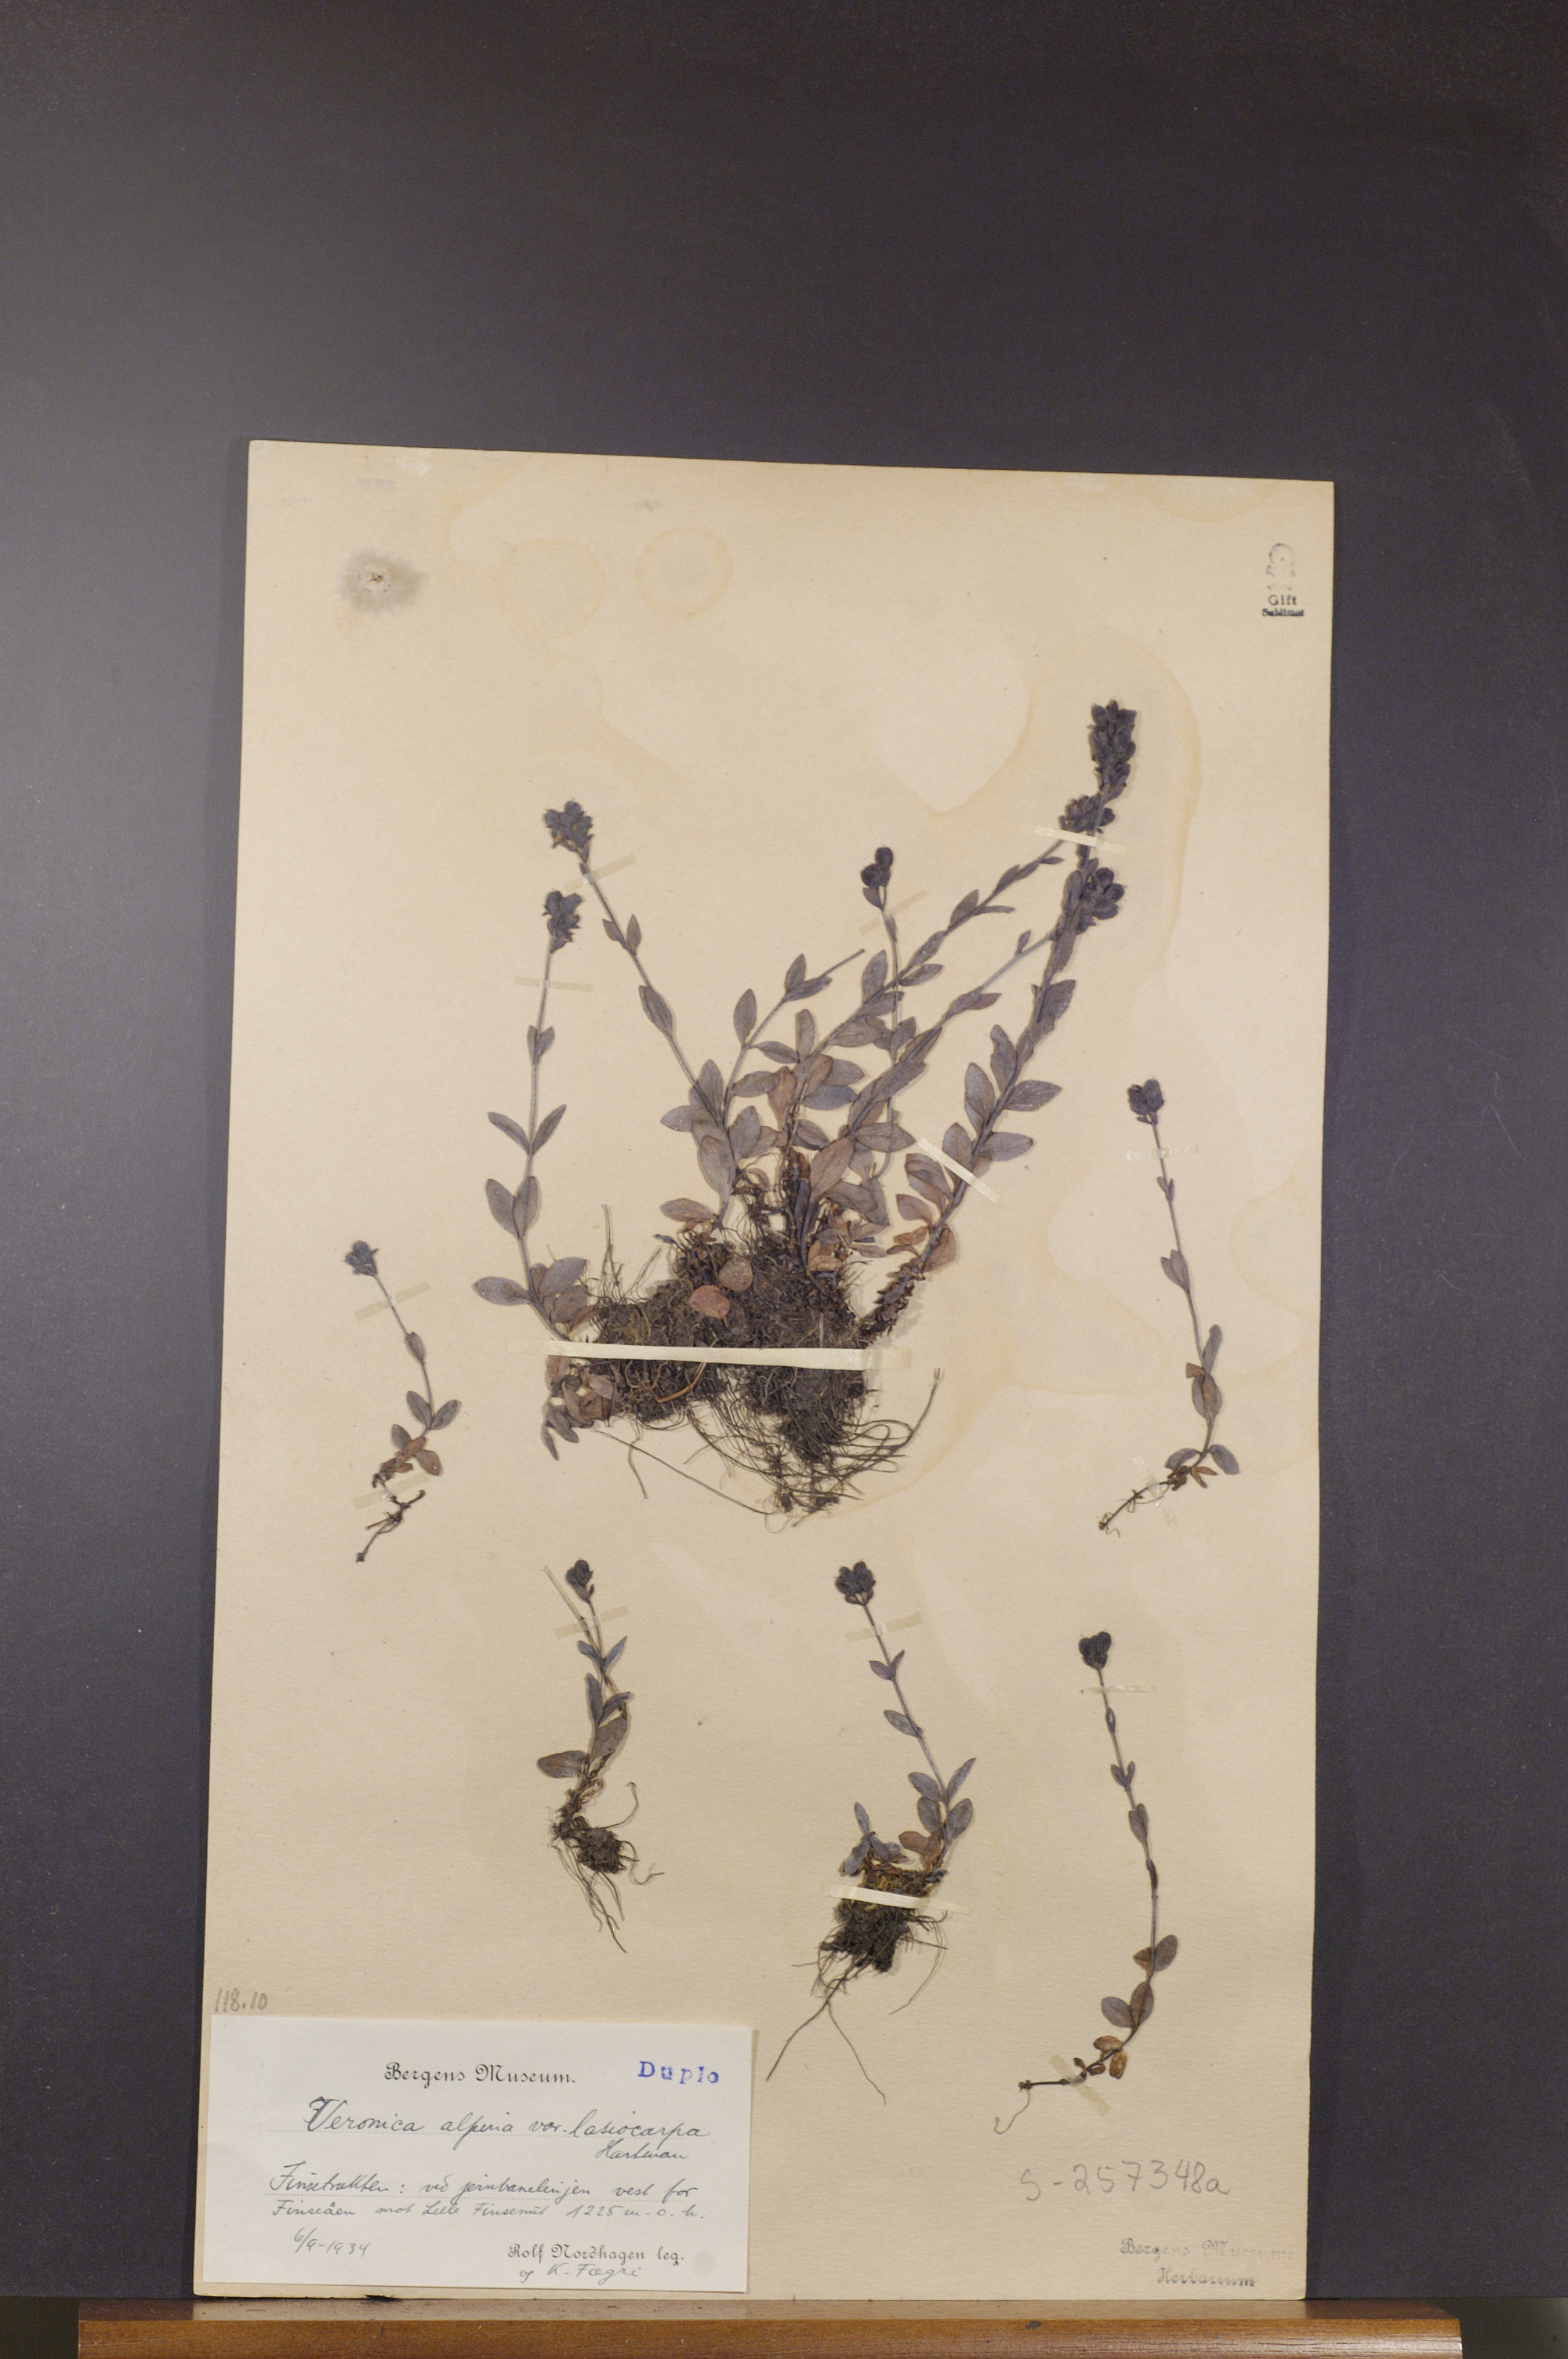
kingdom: Plantae
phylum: Tracheophyta
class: Magnoliopsida
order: Lamiales
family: Plantaginaceae
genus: Veronica
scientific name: Veronica alpina
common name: Alpine speedwell
